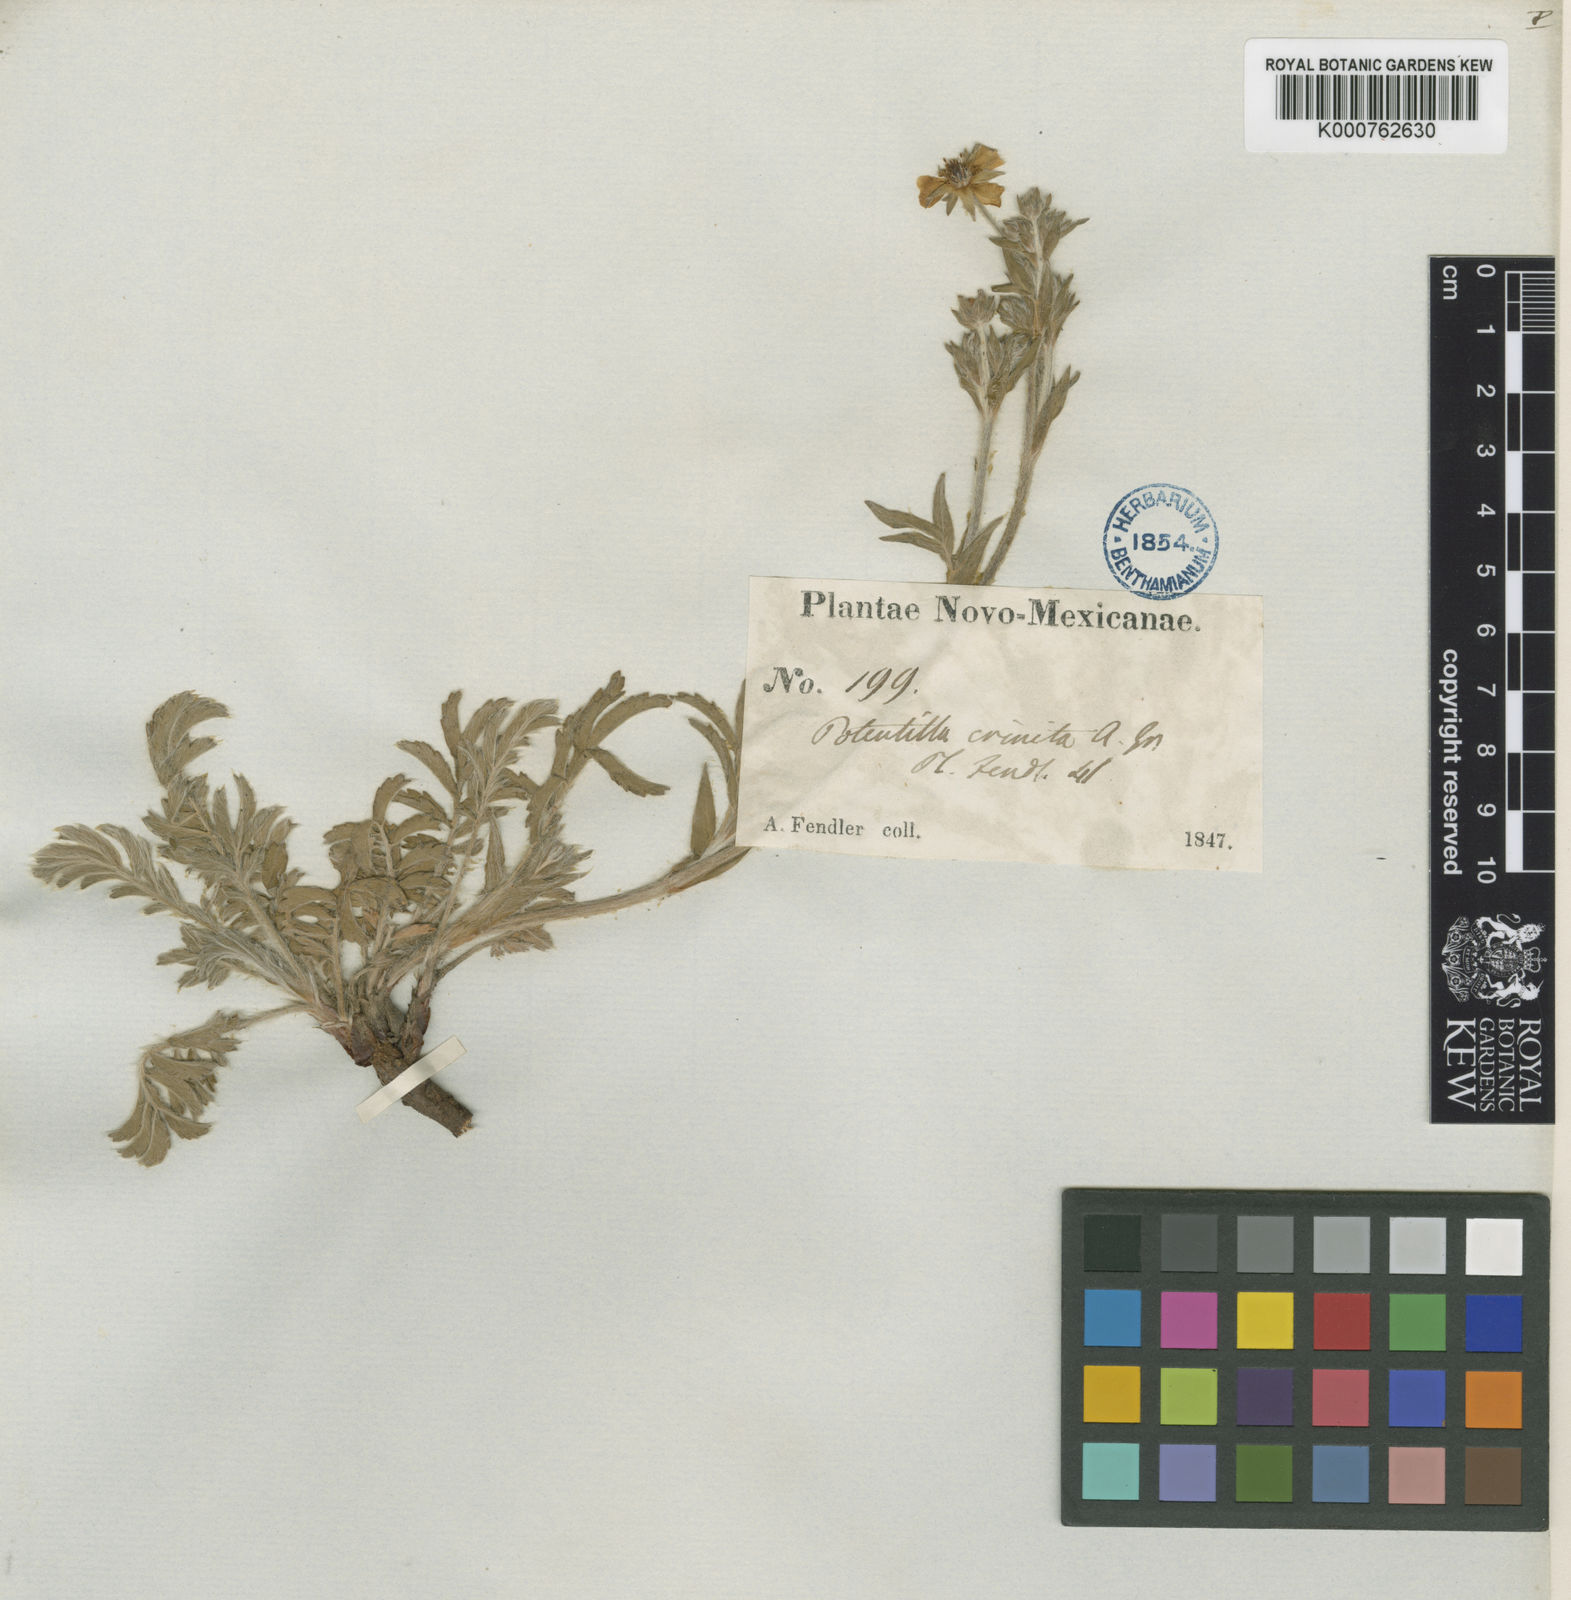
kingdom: Plantae
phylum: Tracheophyta
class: Magnoliopsida
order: Rosales
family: Rosaceae
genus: Potentilla
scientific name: Potentilla crinita
